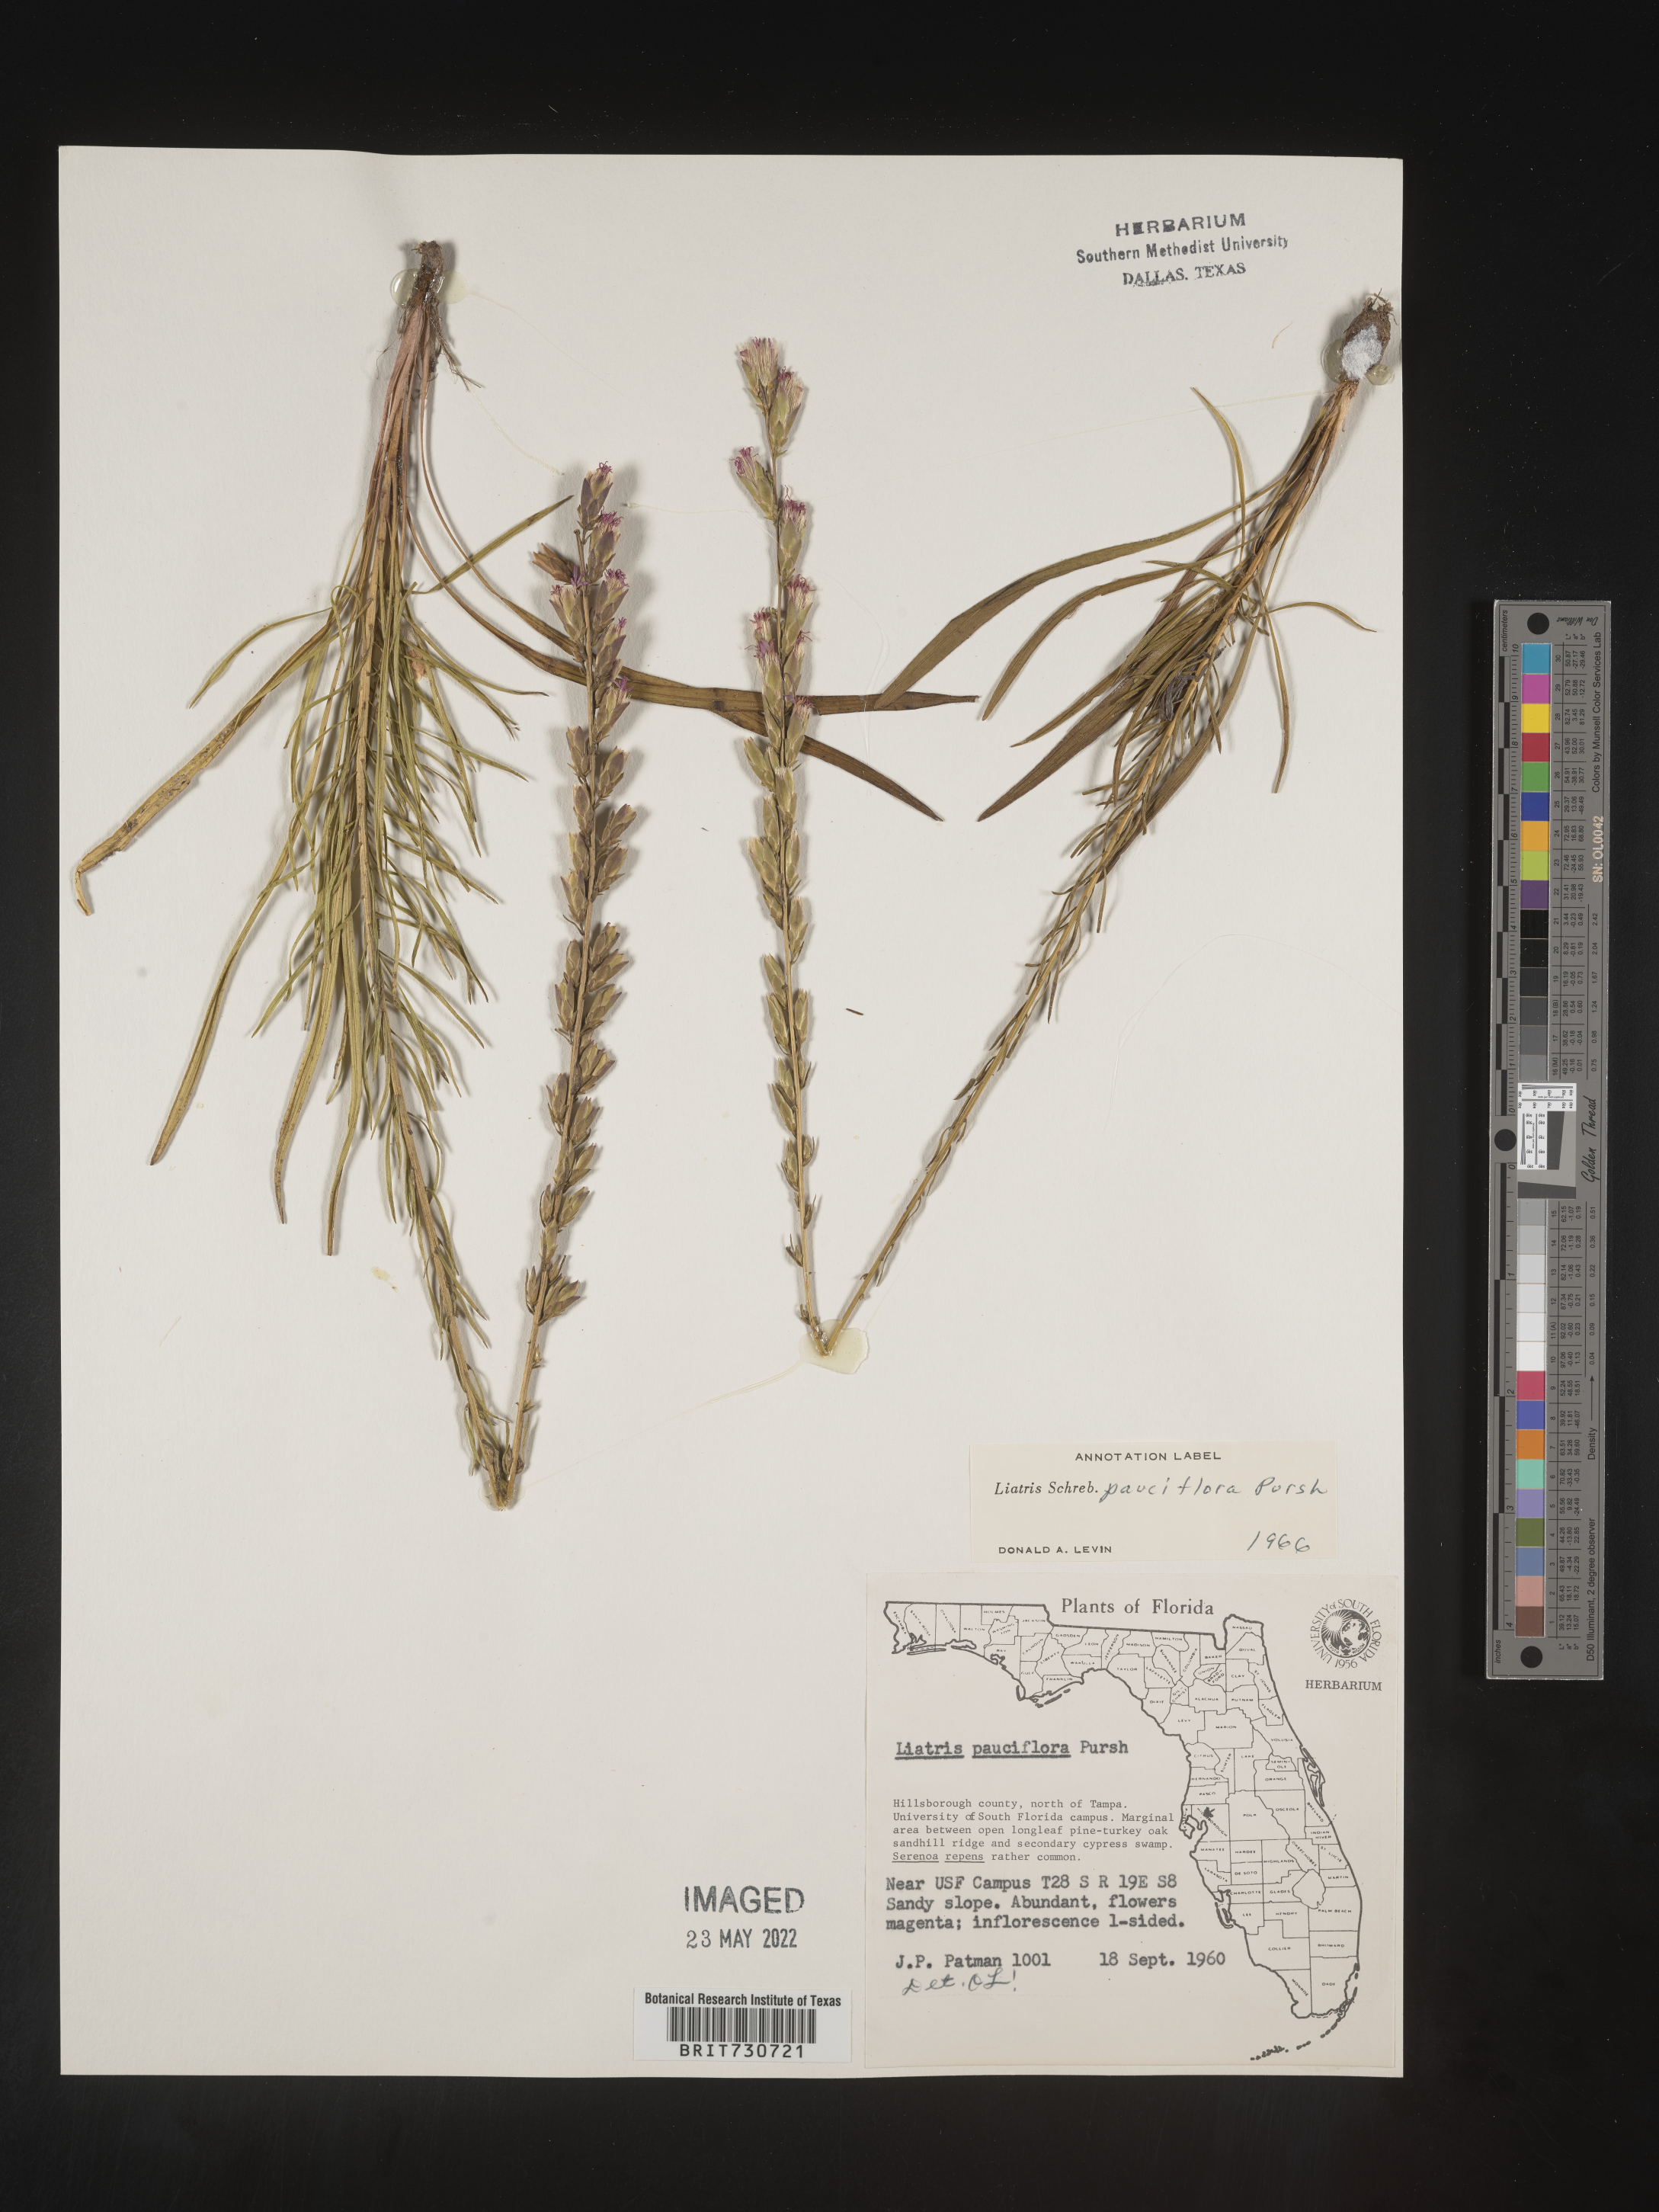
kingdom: Plantae
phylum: Tracheophyta
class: Magnoliopsida
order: Asterales
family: Asteraceae
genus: Liatris
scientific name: Liatris pauciflora
